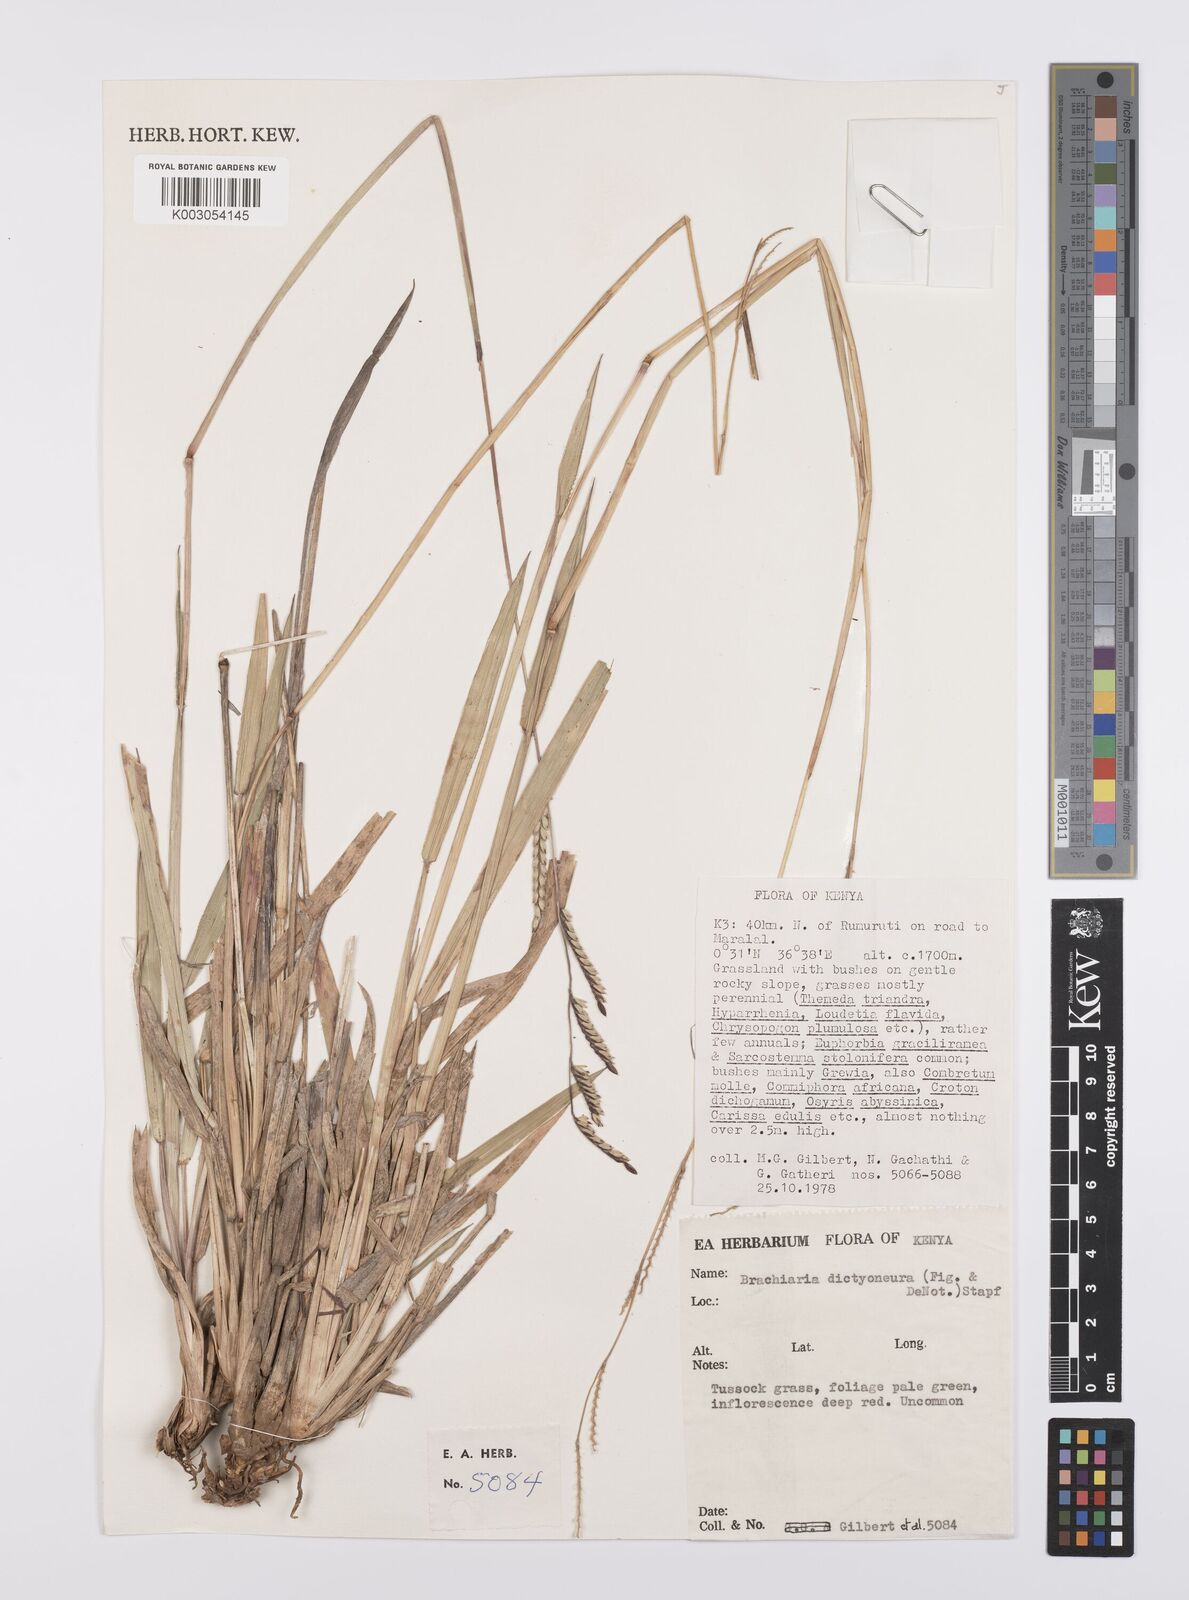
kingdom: Plantae
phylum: Tracheophyta
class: Liliopsida
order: Poales
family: Poaceae
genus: Urochloa
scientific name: Urochloa dictyoneura
